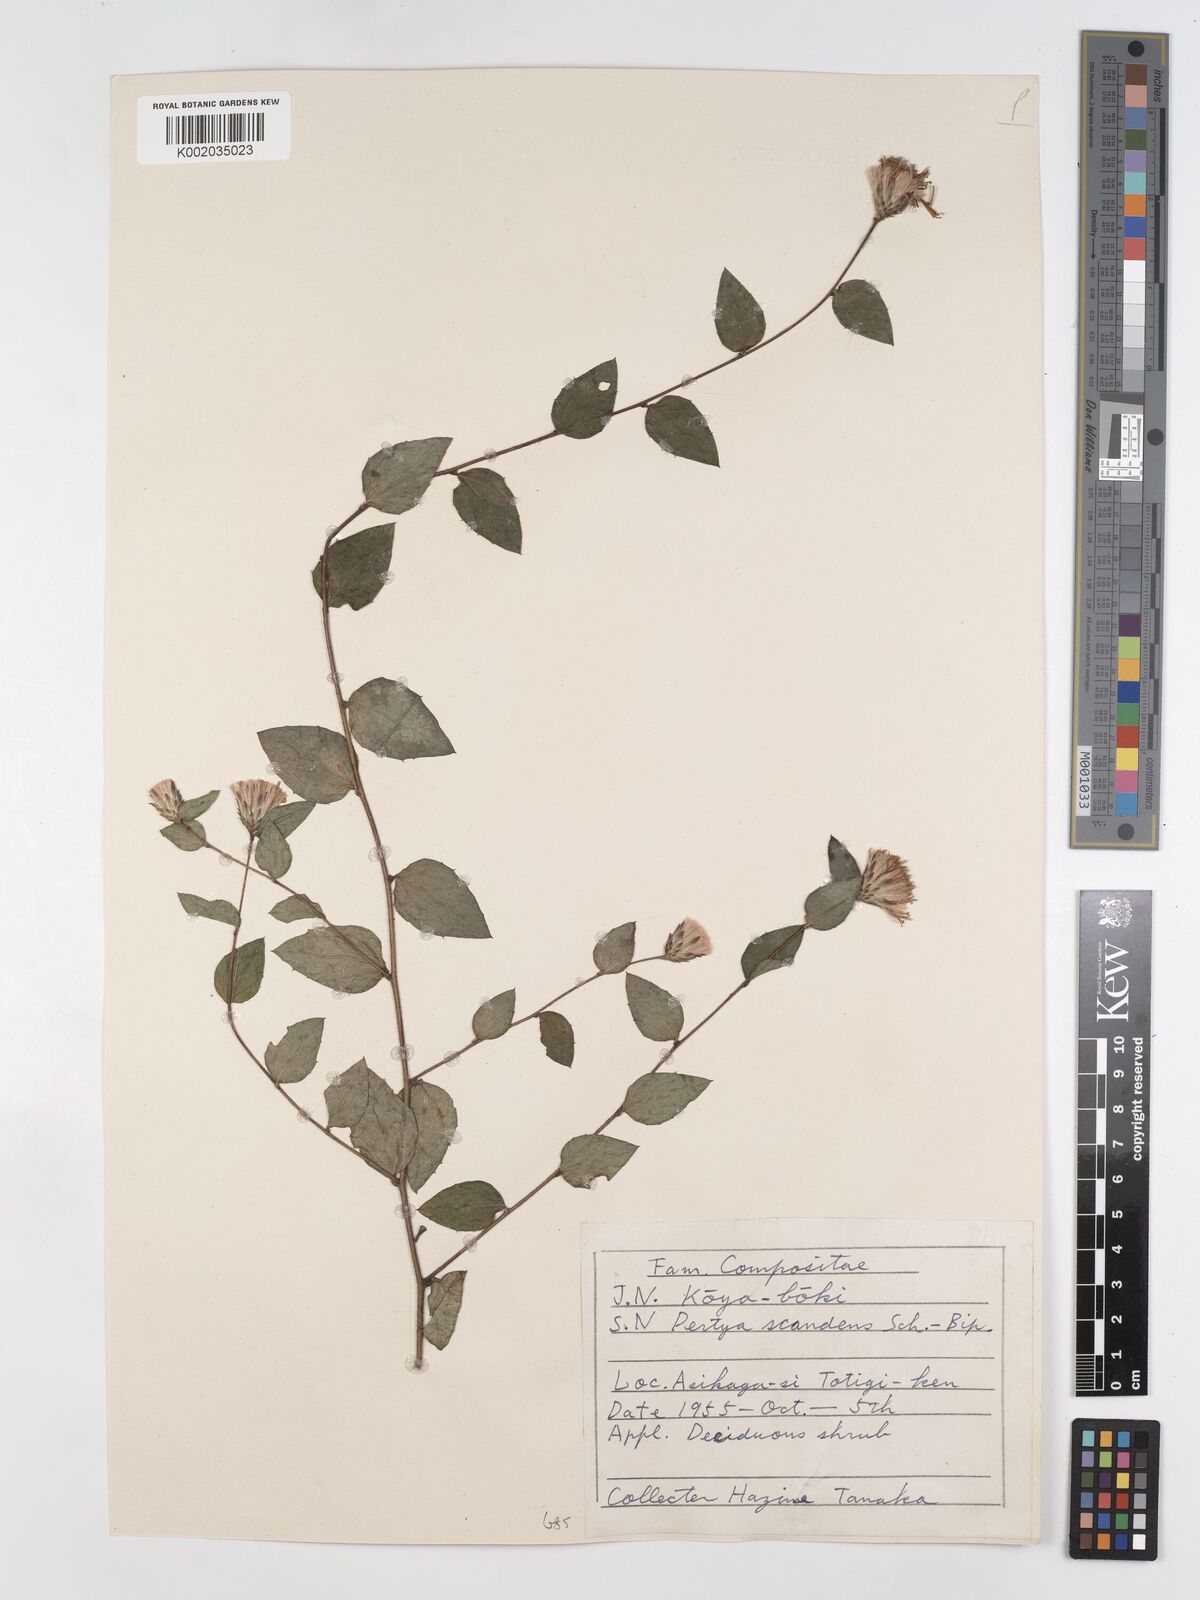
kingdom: Plantae
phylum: Tracheophyta
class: Magnoliopsida
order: Asterales
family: Asteraceae
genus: Pertya
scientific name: Pertya scandens
